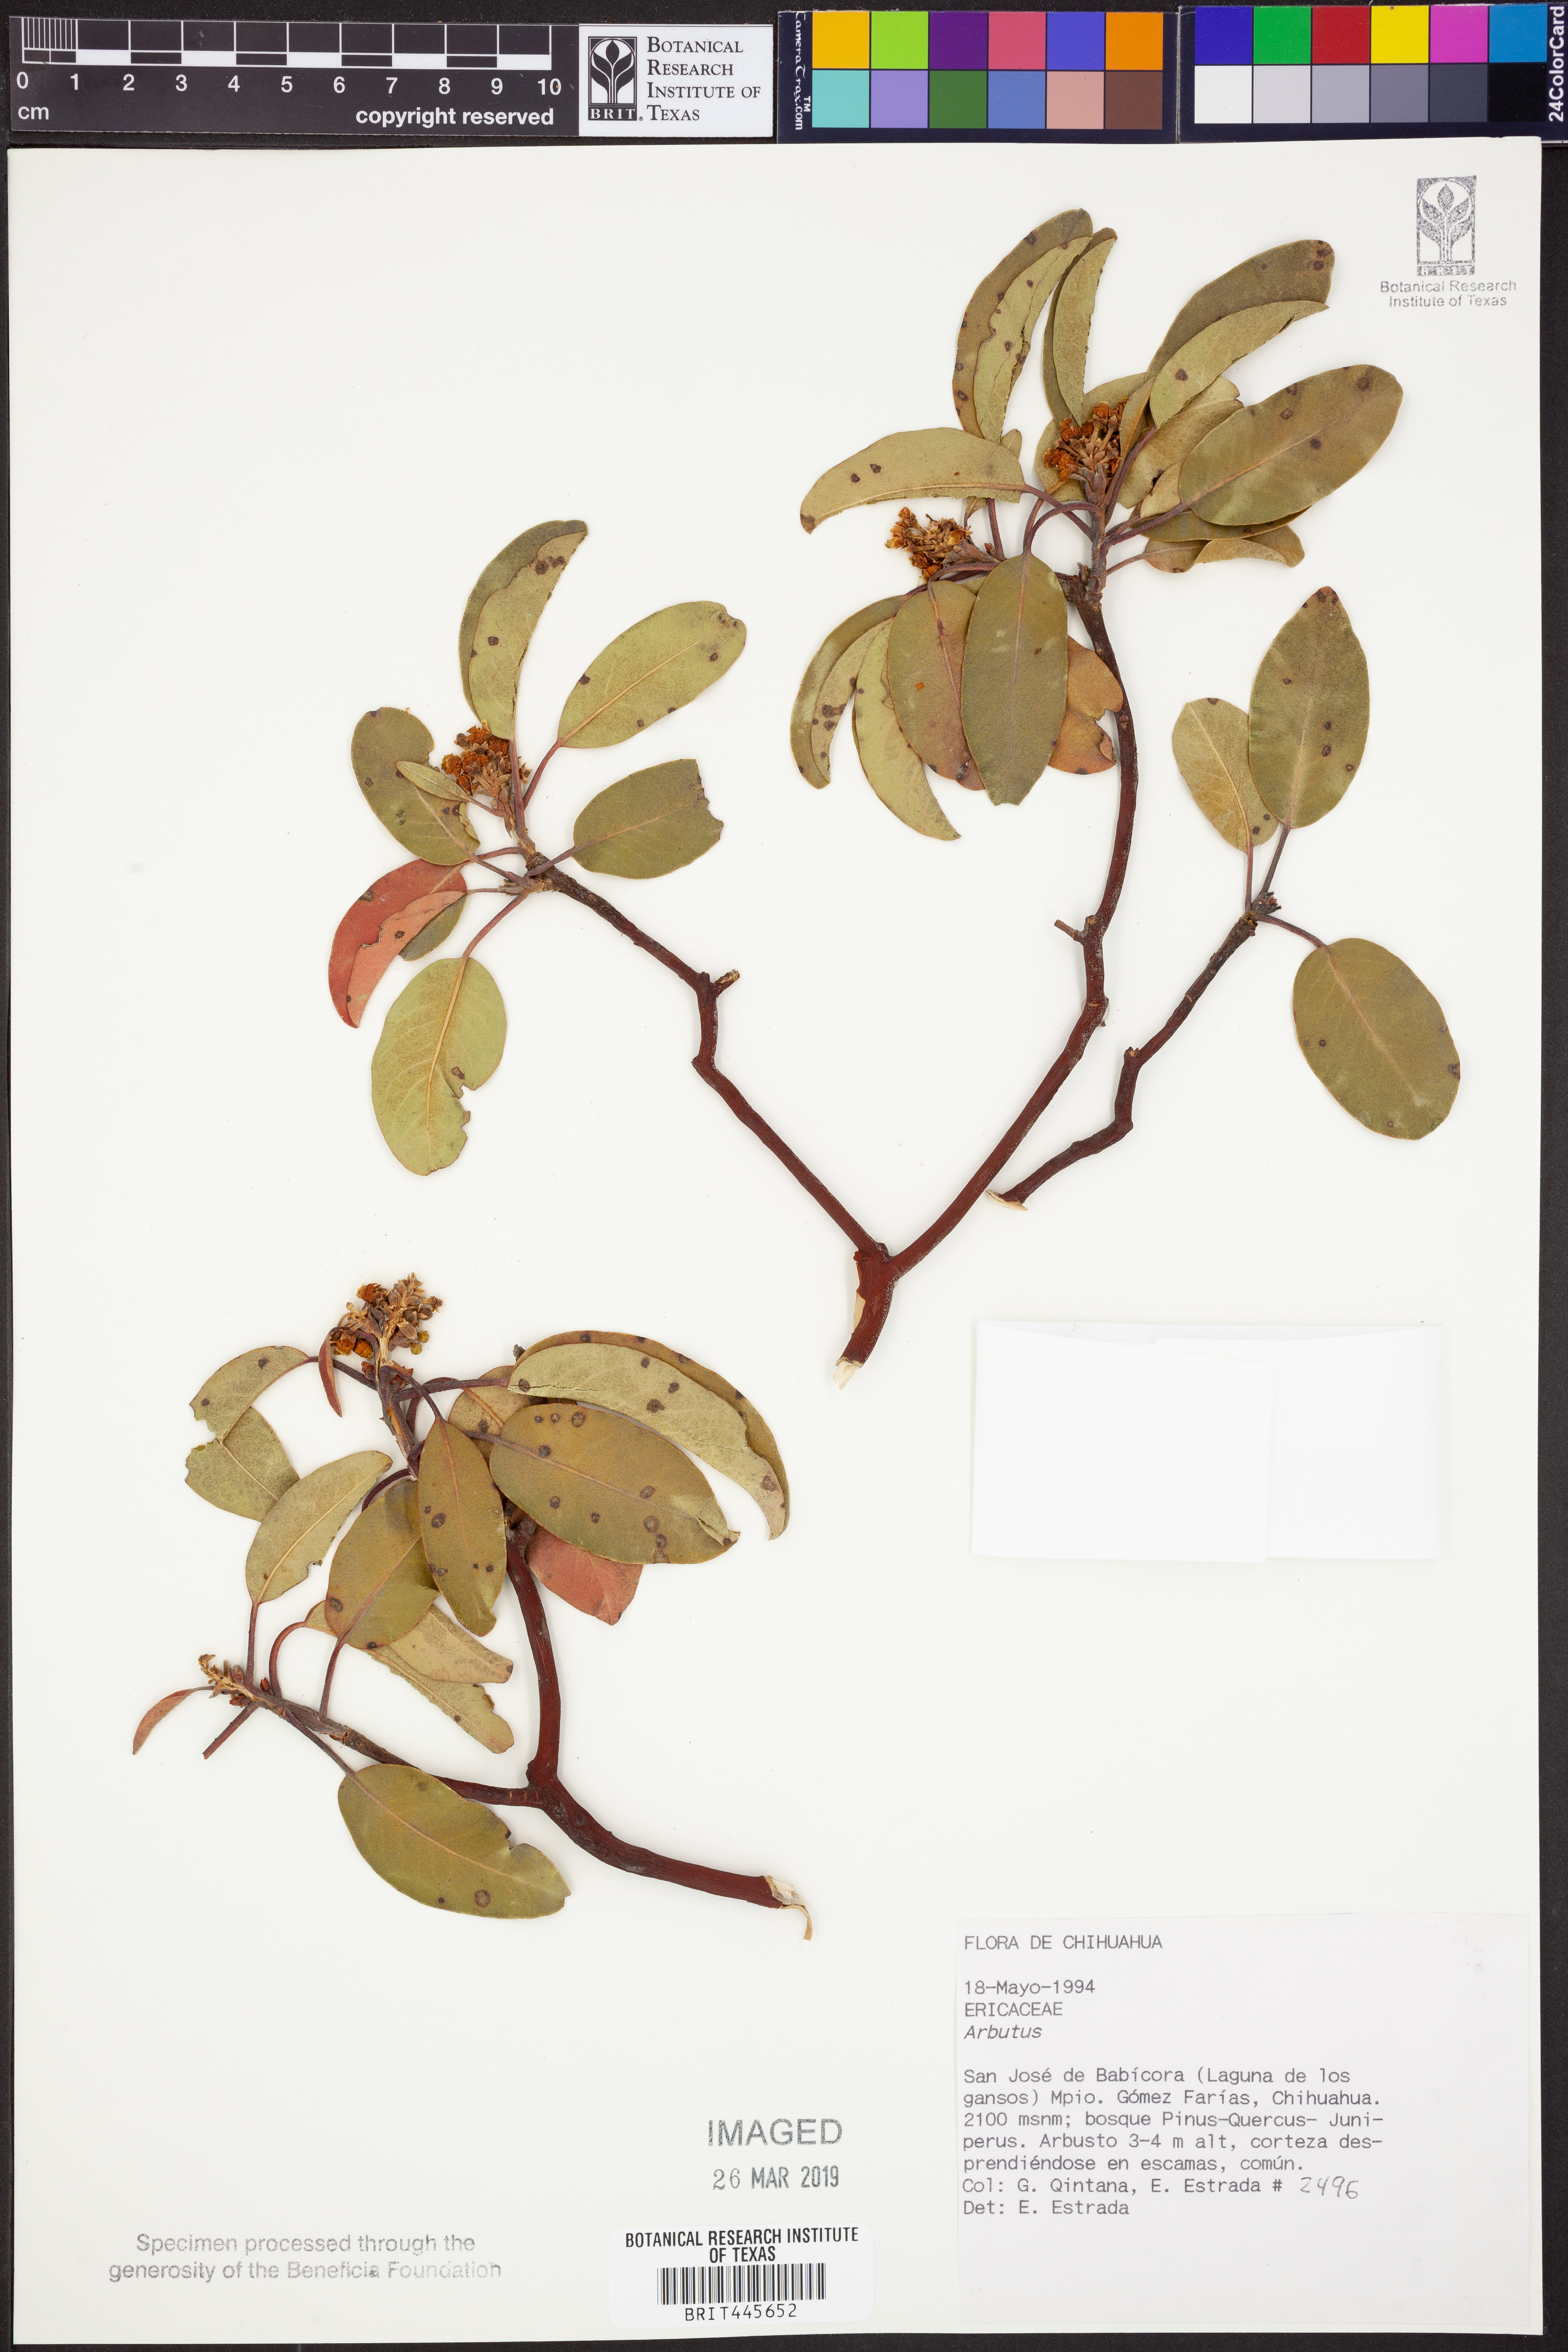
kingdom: Plantae
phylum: Tracheophyta
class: Magnoliopsida
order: Ericales
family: Ericaceae
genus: Arbutus
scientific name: Arbutus
